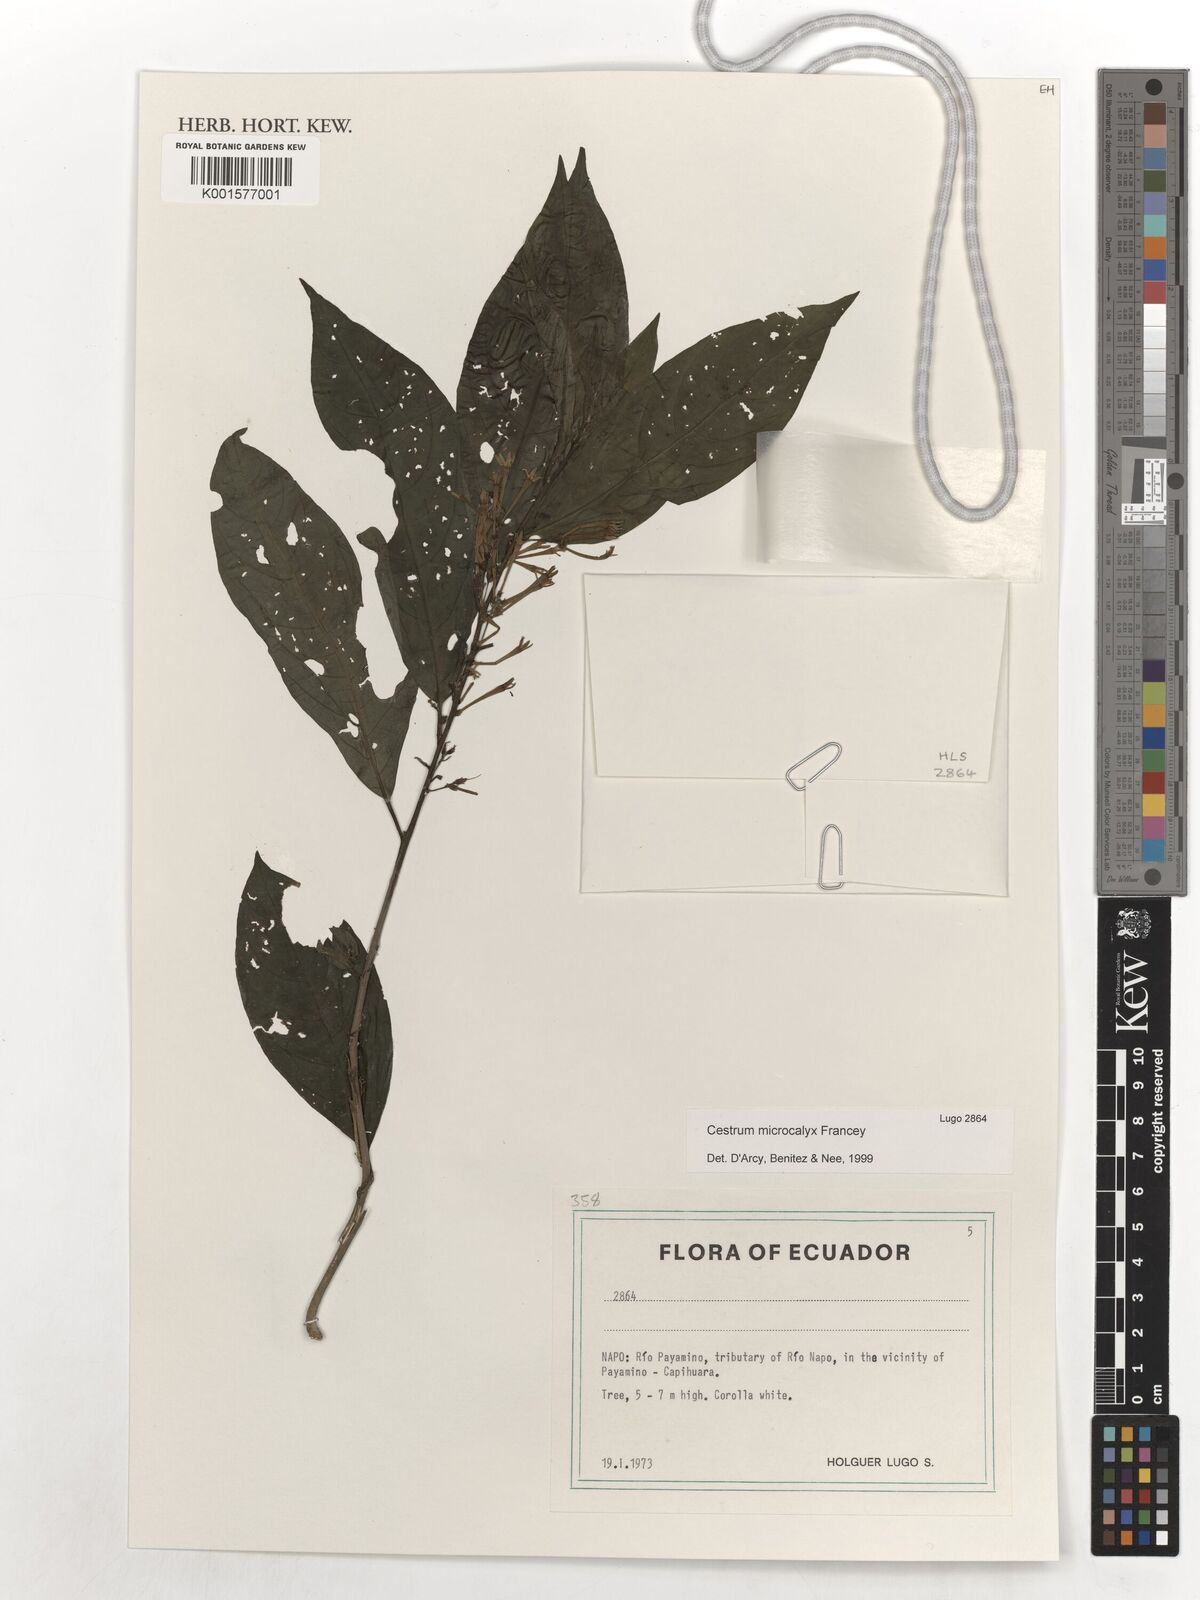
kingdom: Plantae
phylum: Tracheophyta
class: Magnoliopsida
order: Solanales
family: Solanaceae
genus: Cestrum
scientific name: Cestrum microcalyx
